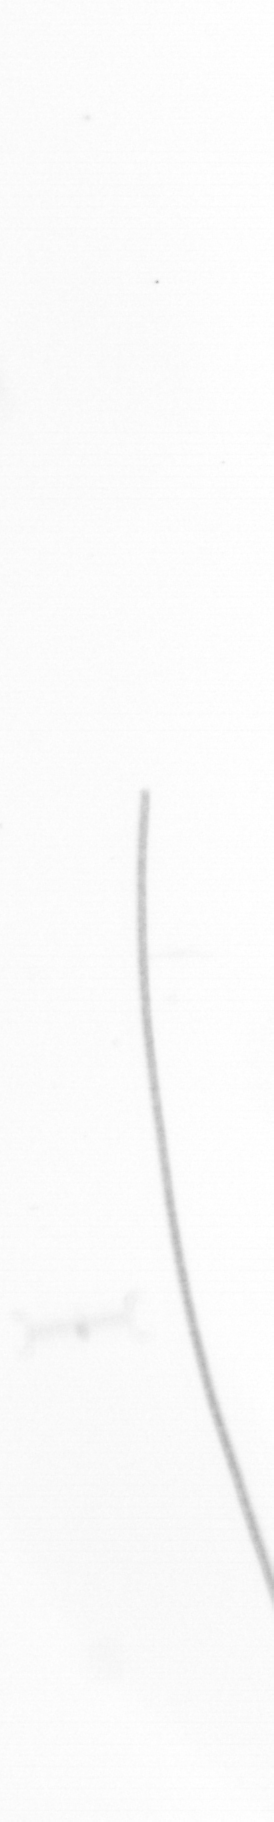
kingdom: Chromista
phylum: Ochrophyta
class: Bacillariophyceae
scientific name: Bacillariophyceae
